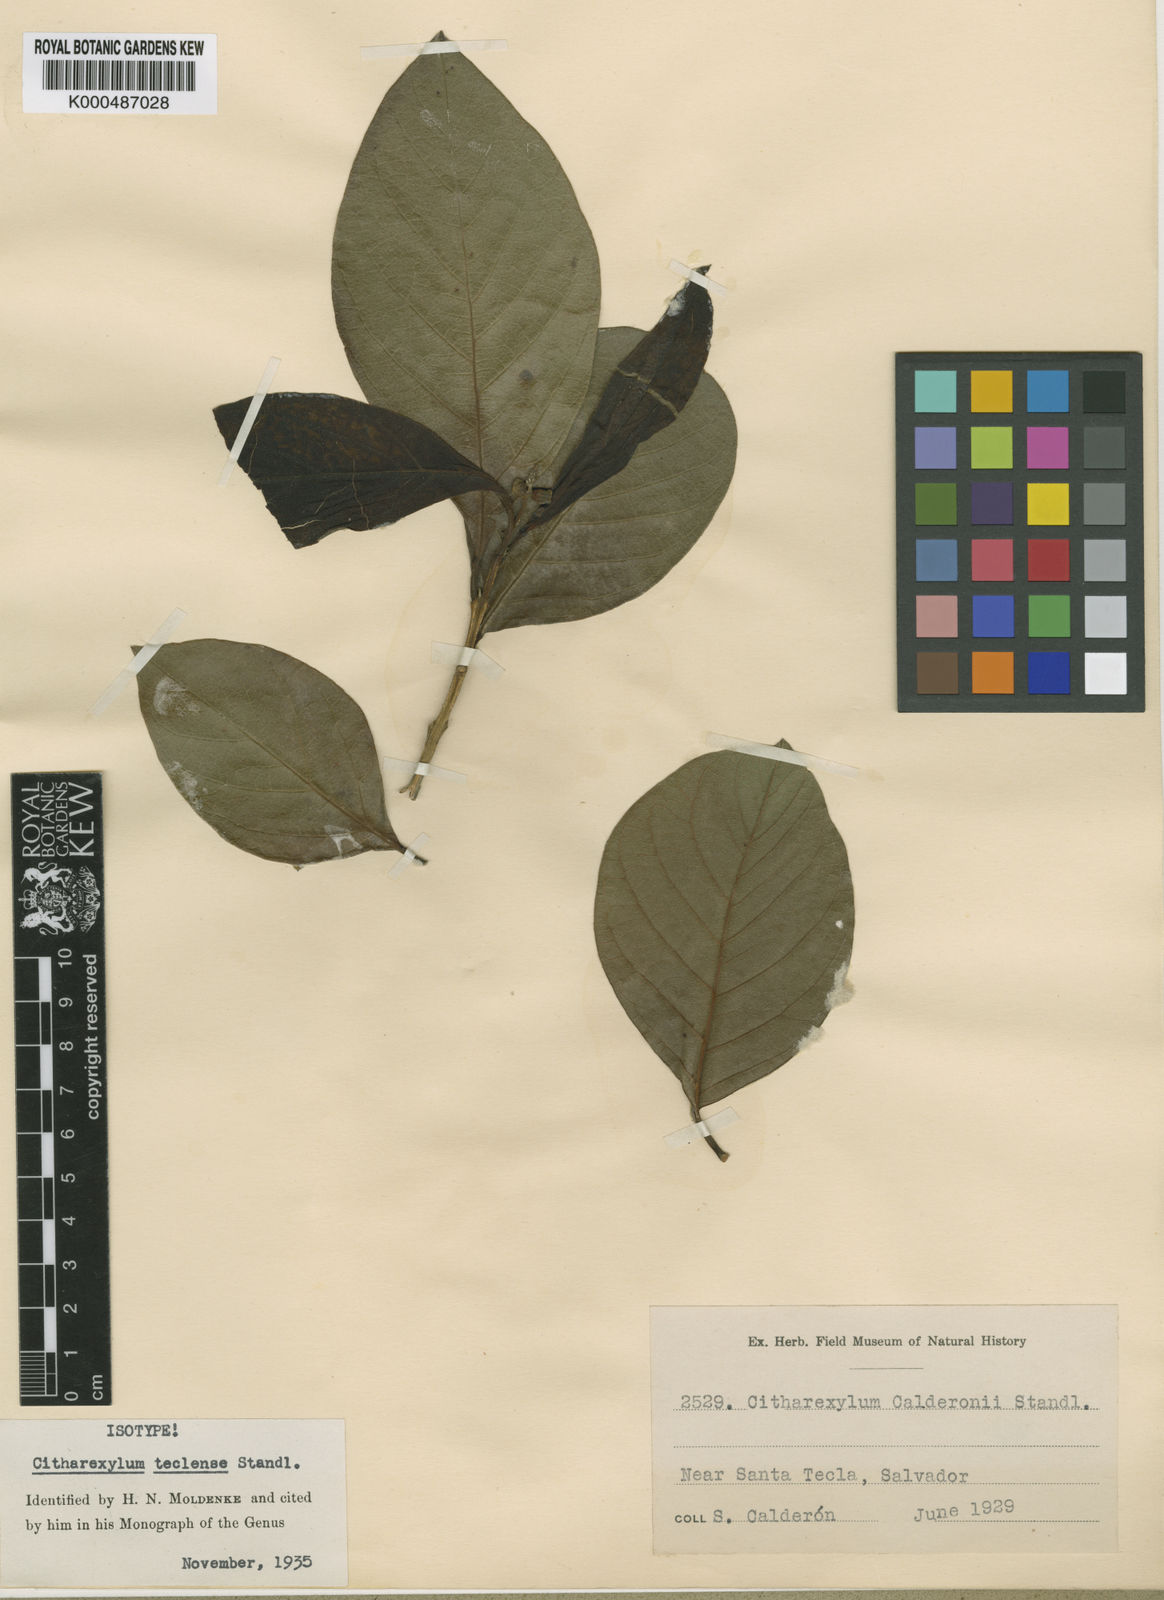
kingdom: Plantae
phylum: Tracheophyta
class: Magnoliopsida
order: Lamiales
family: Verbenaceae
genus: Citharexylum
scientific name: Citharexylum teclense
